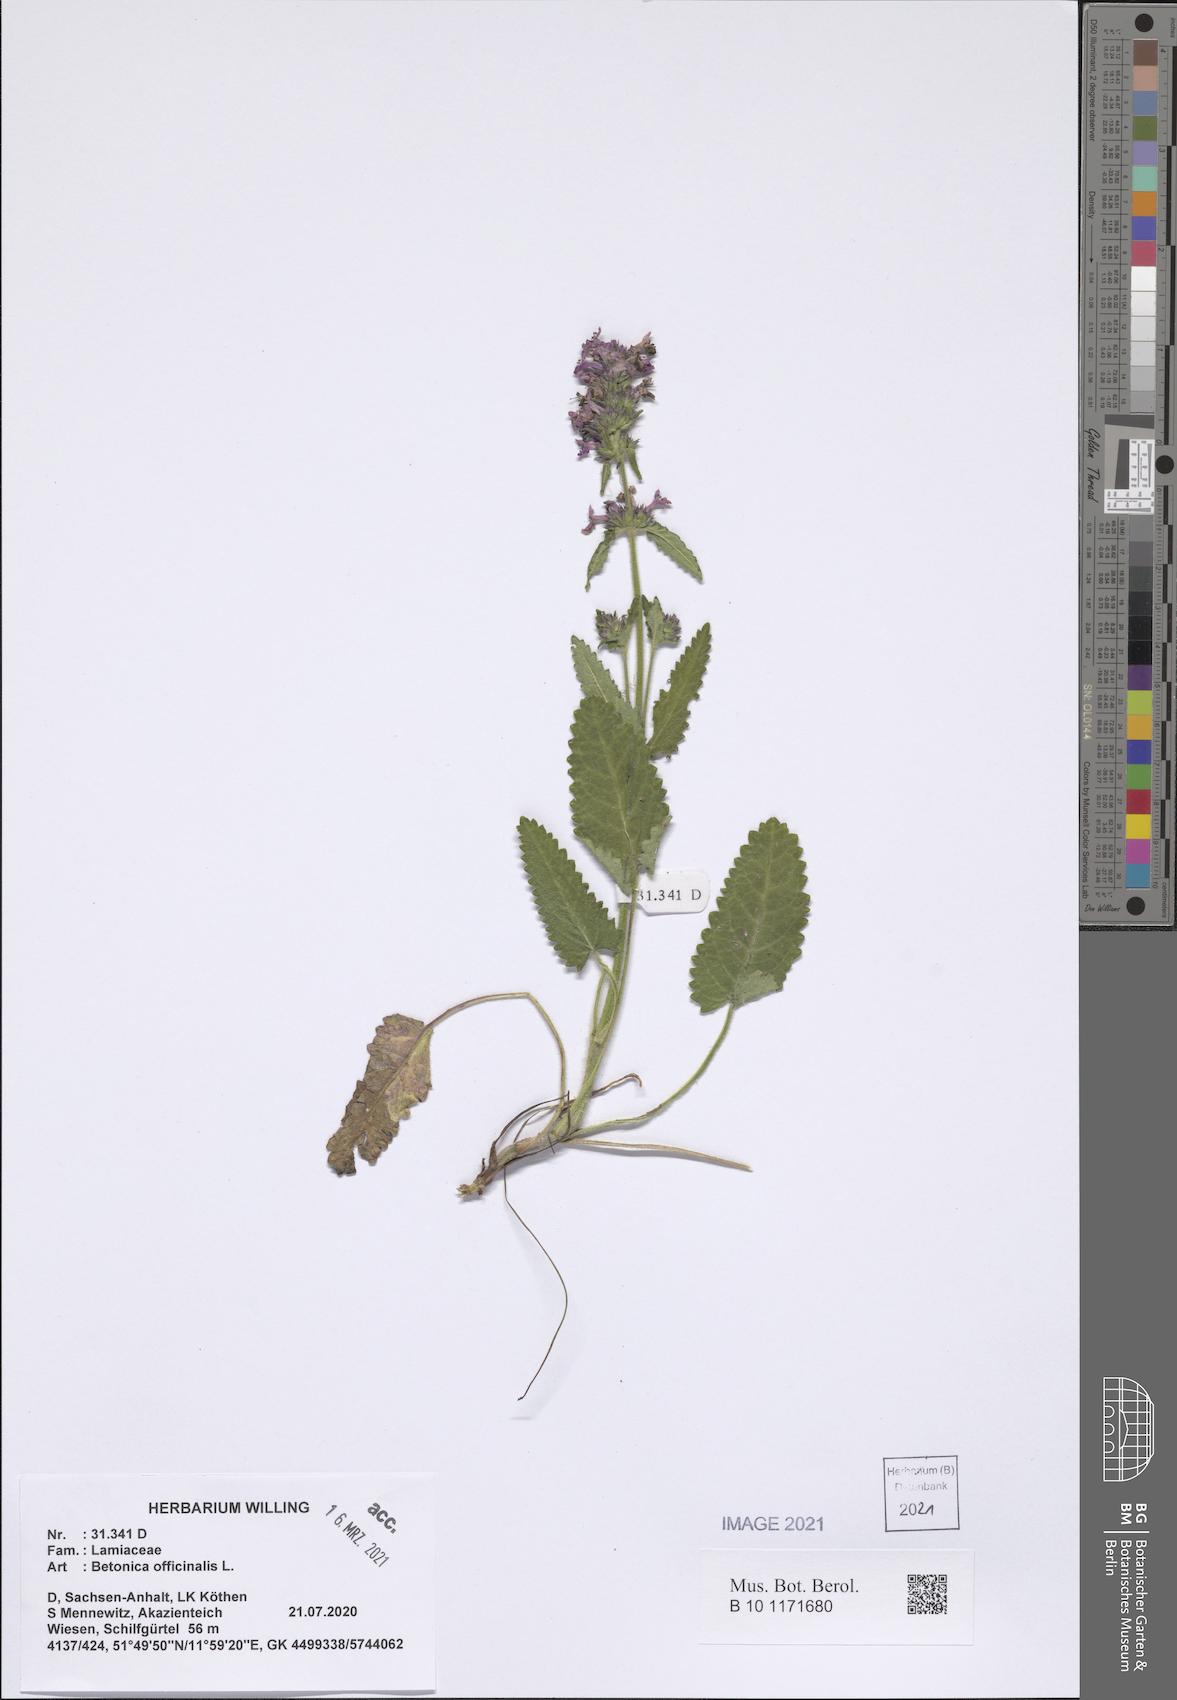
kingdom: Plantae
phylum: Tracheophyta
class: Magnoliopsida
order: Lamiales
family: Lamiaceae
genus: Betonica
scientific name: Betonica officinalis
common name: Bishop's-wort
